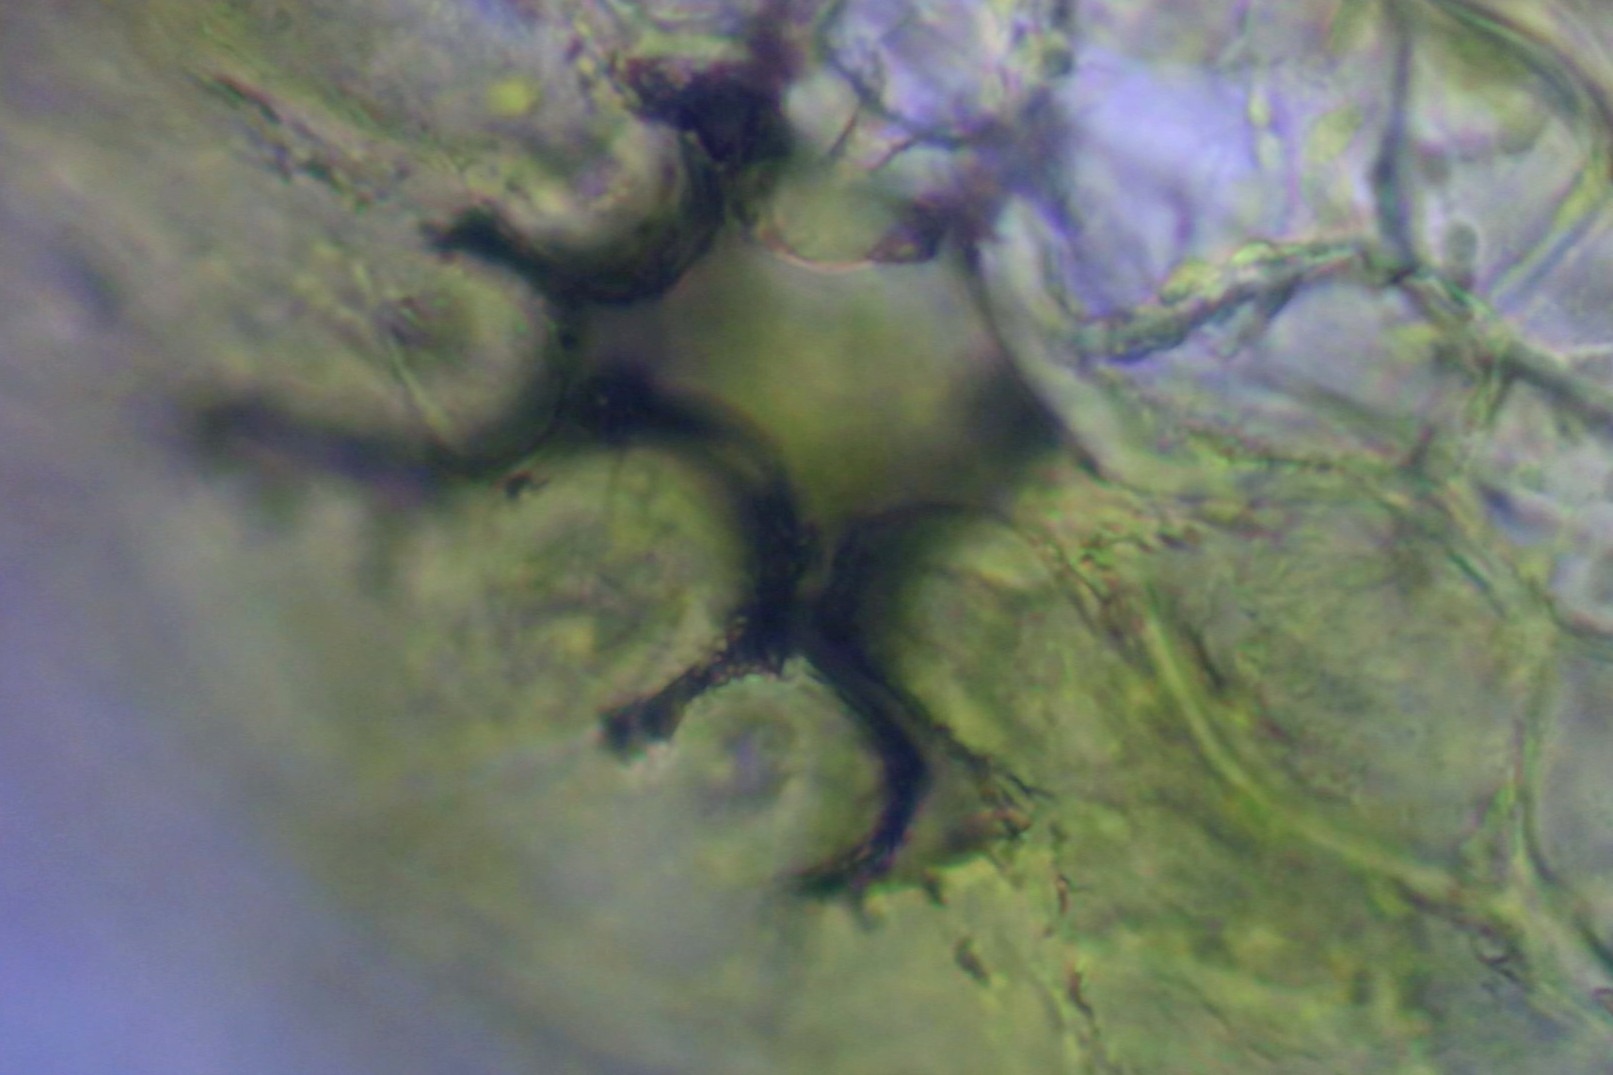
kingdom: Plantae
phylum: Bryophyta
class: Bryopsida
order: Orthotrichales
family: Orthotrichaceae
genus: Orthotrichum
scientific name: Orthotrichum cupulatum
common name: Skål-furehætte
